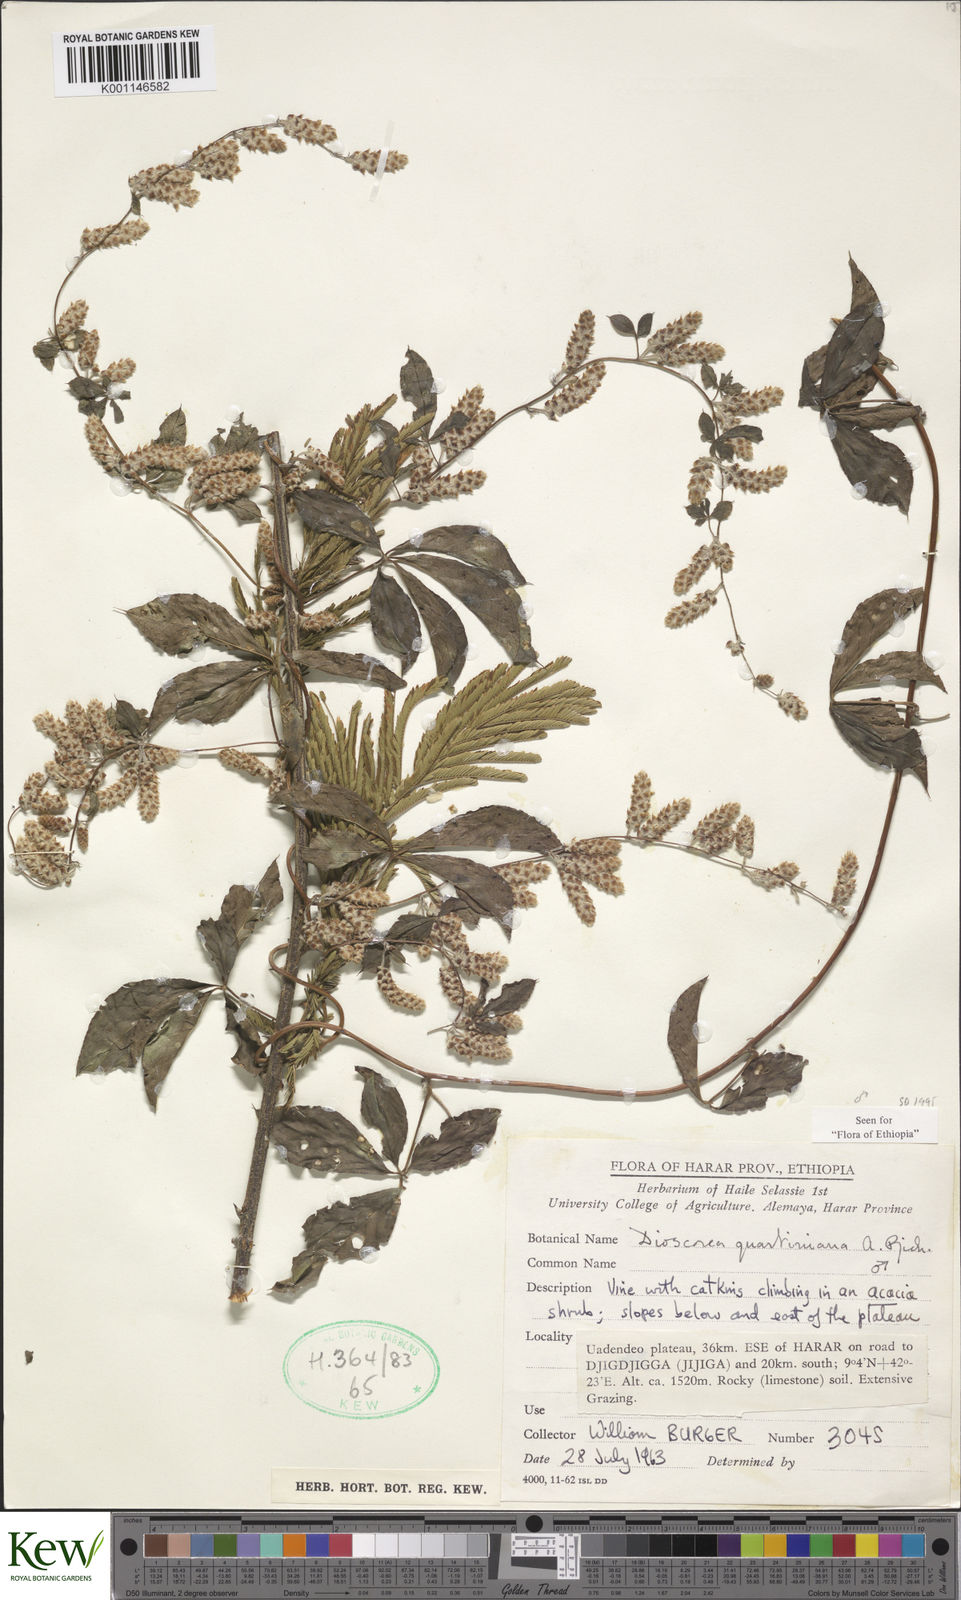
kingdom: Plantae
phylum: Tracheophyta
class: Liliopsida
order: Dioscoreales
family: Dioscoreaceae
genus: Dioscorea
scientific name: Dioscorea quartiniana
